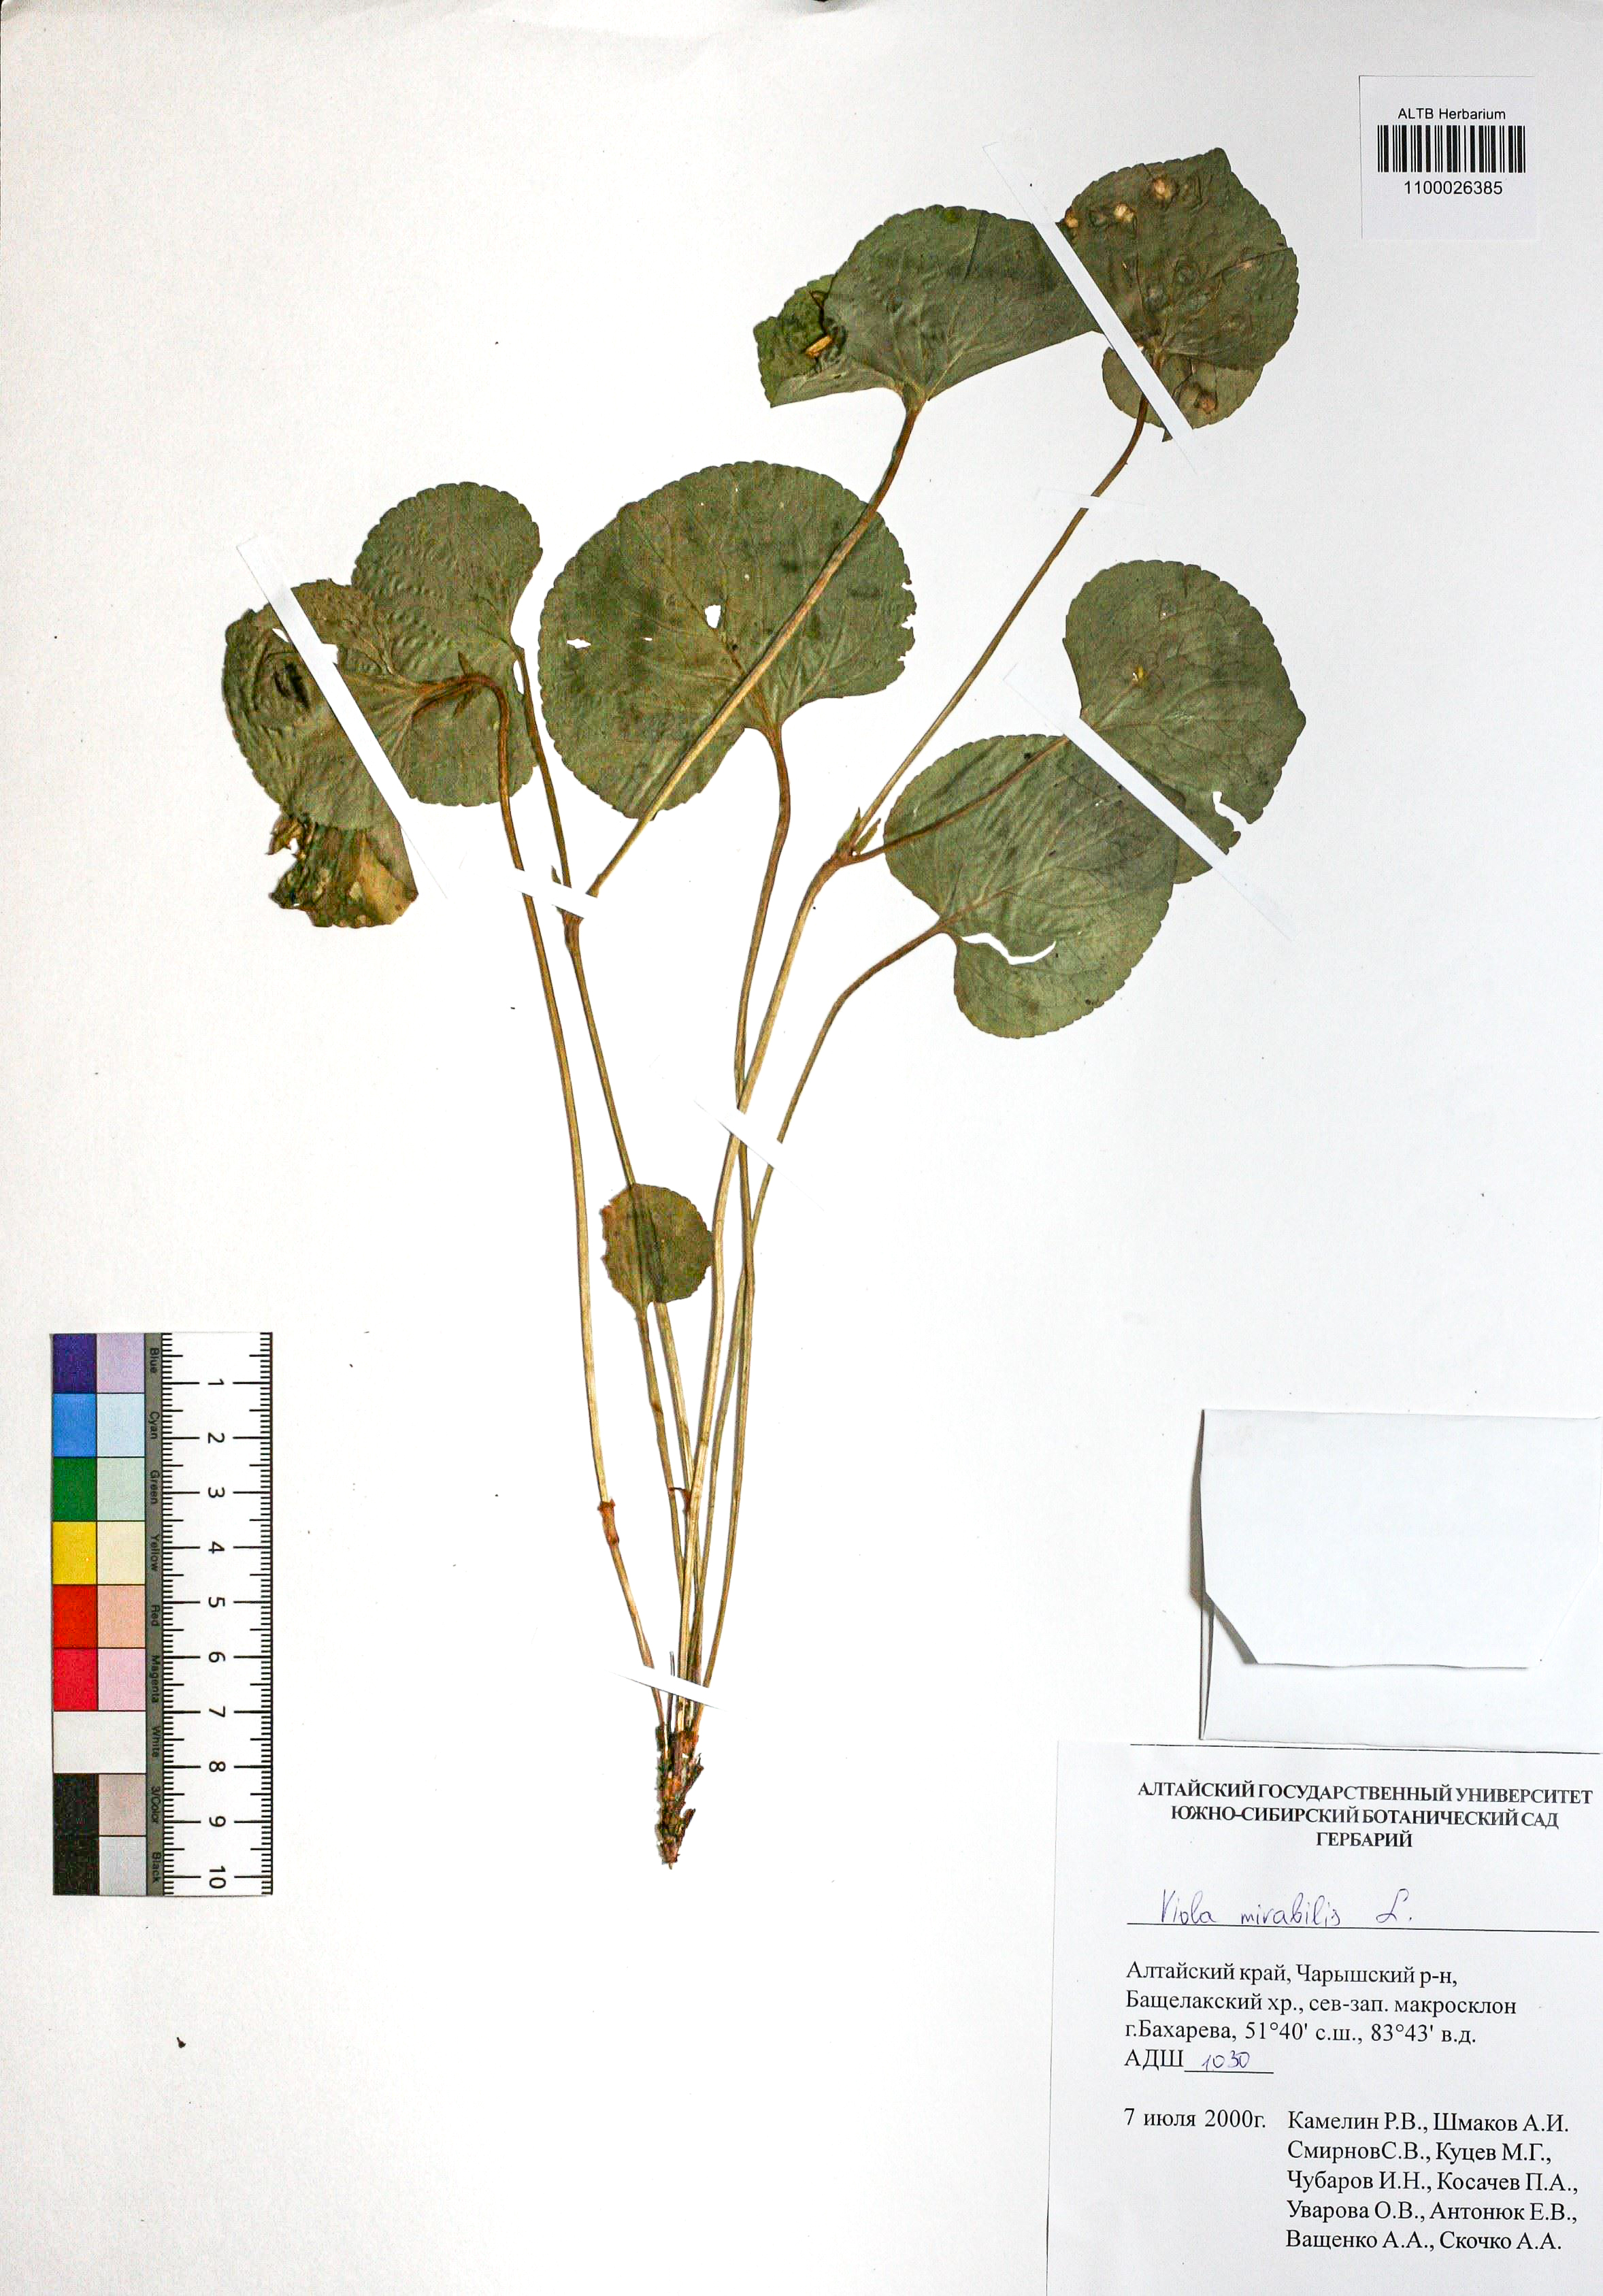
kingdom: Plantae
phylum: Tracheophyta
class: Magnoliopsida
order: Malpighiales
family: Violaceae
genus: Viola
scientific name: Viola mirabilis
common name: Wonder violet
